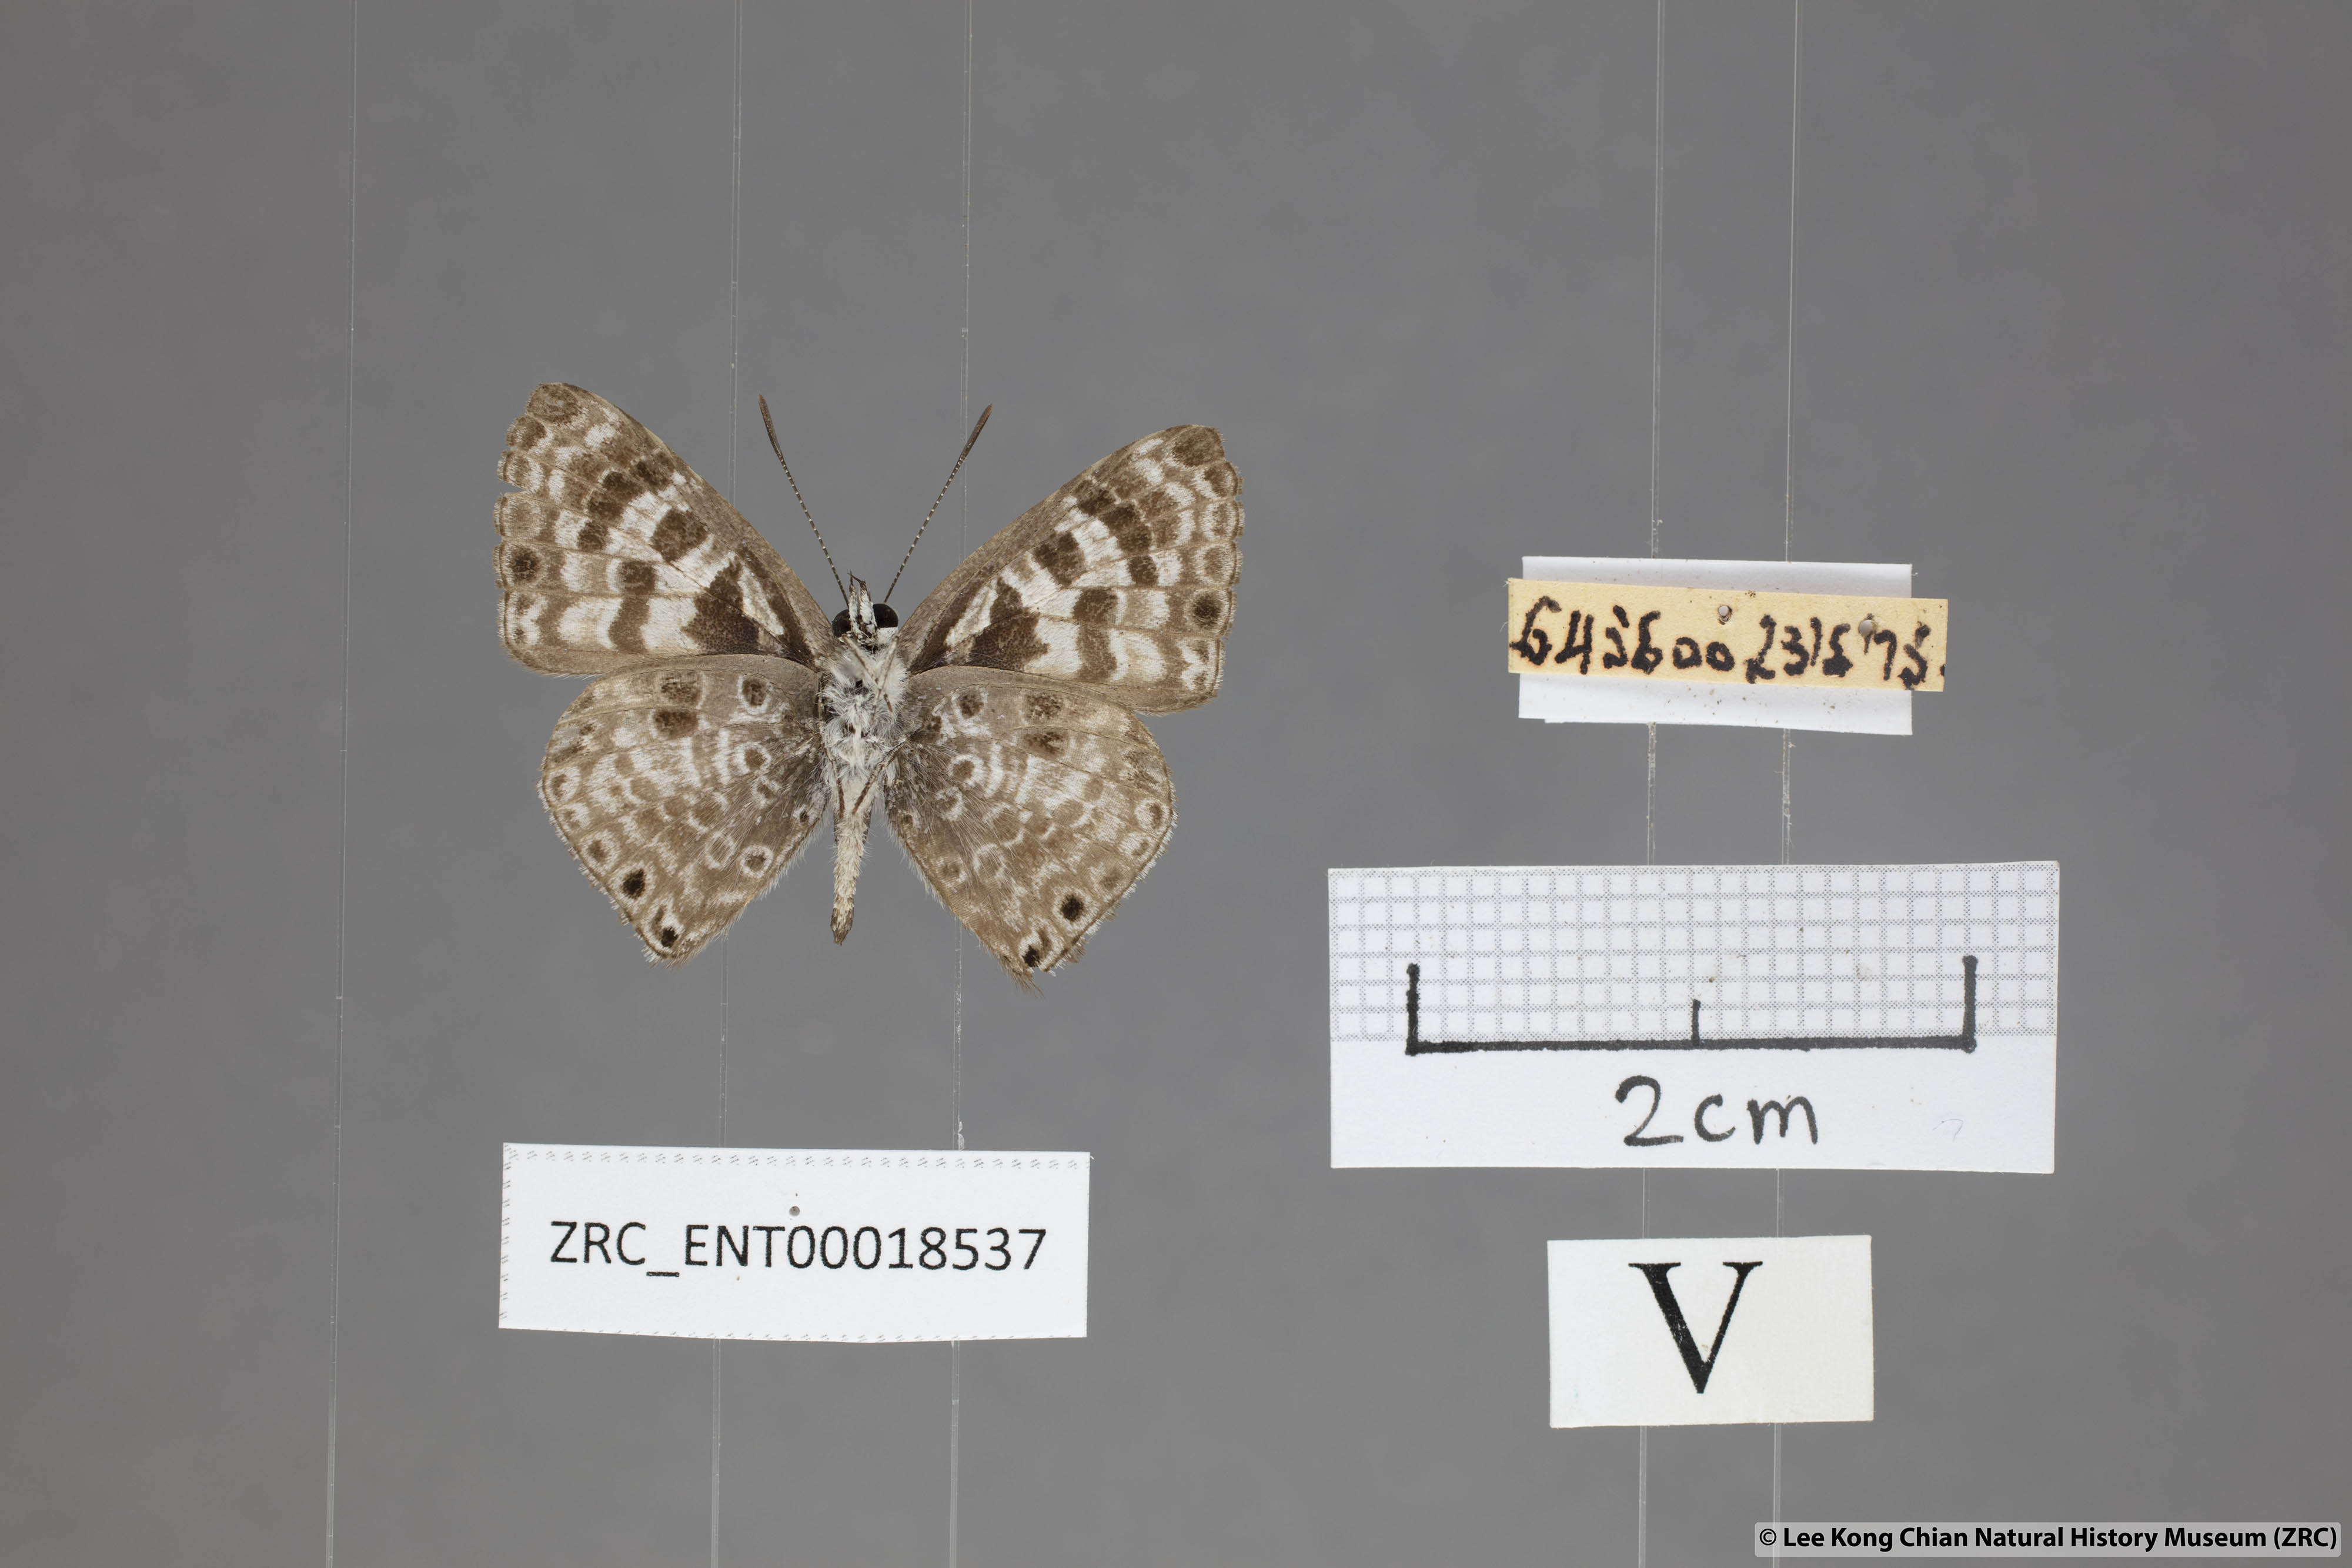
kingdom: Animalia
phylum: Arthropoda
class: Insecta
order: Lepidoptera
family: Lycaenidae
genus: Niphanda
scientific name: Niphanda tessellata
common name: Large pointed pierrot
